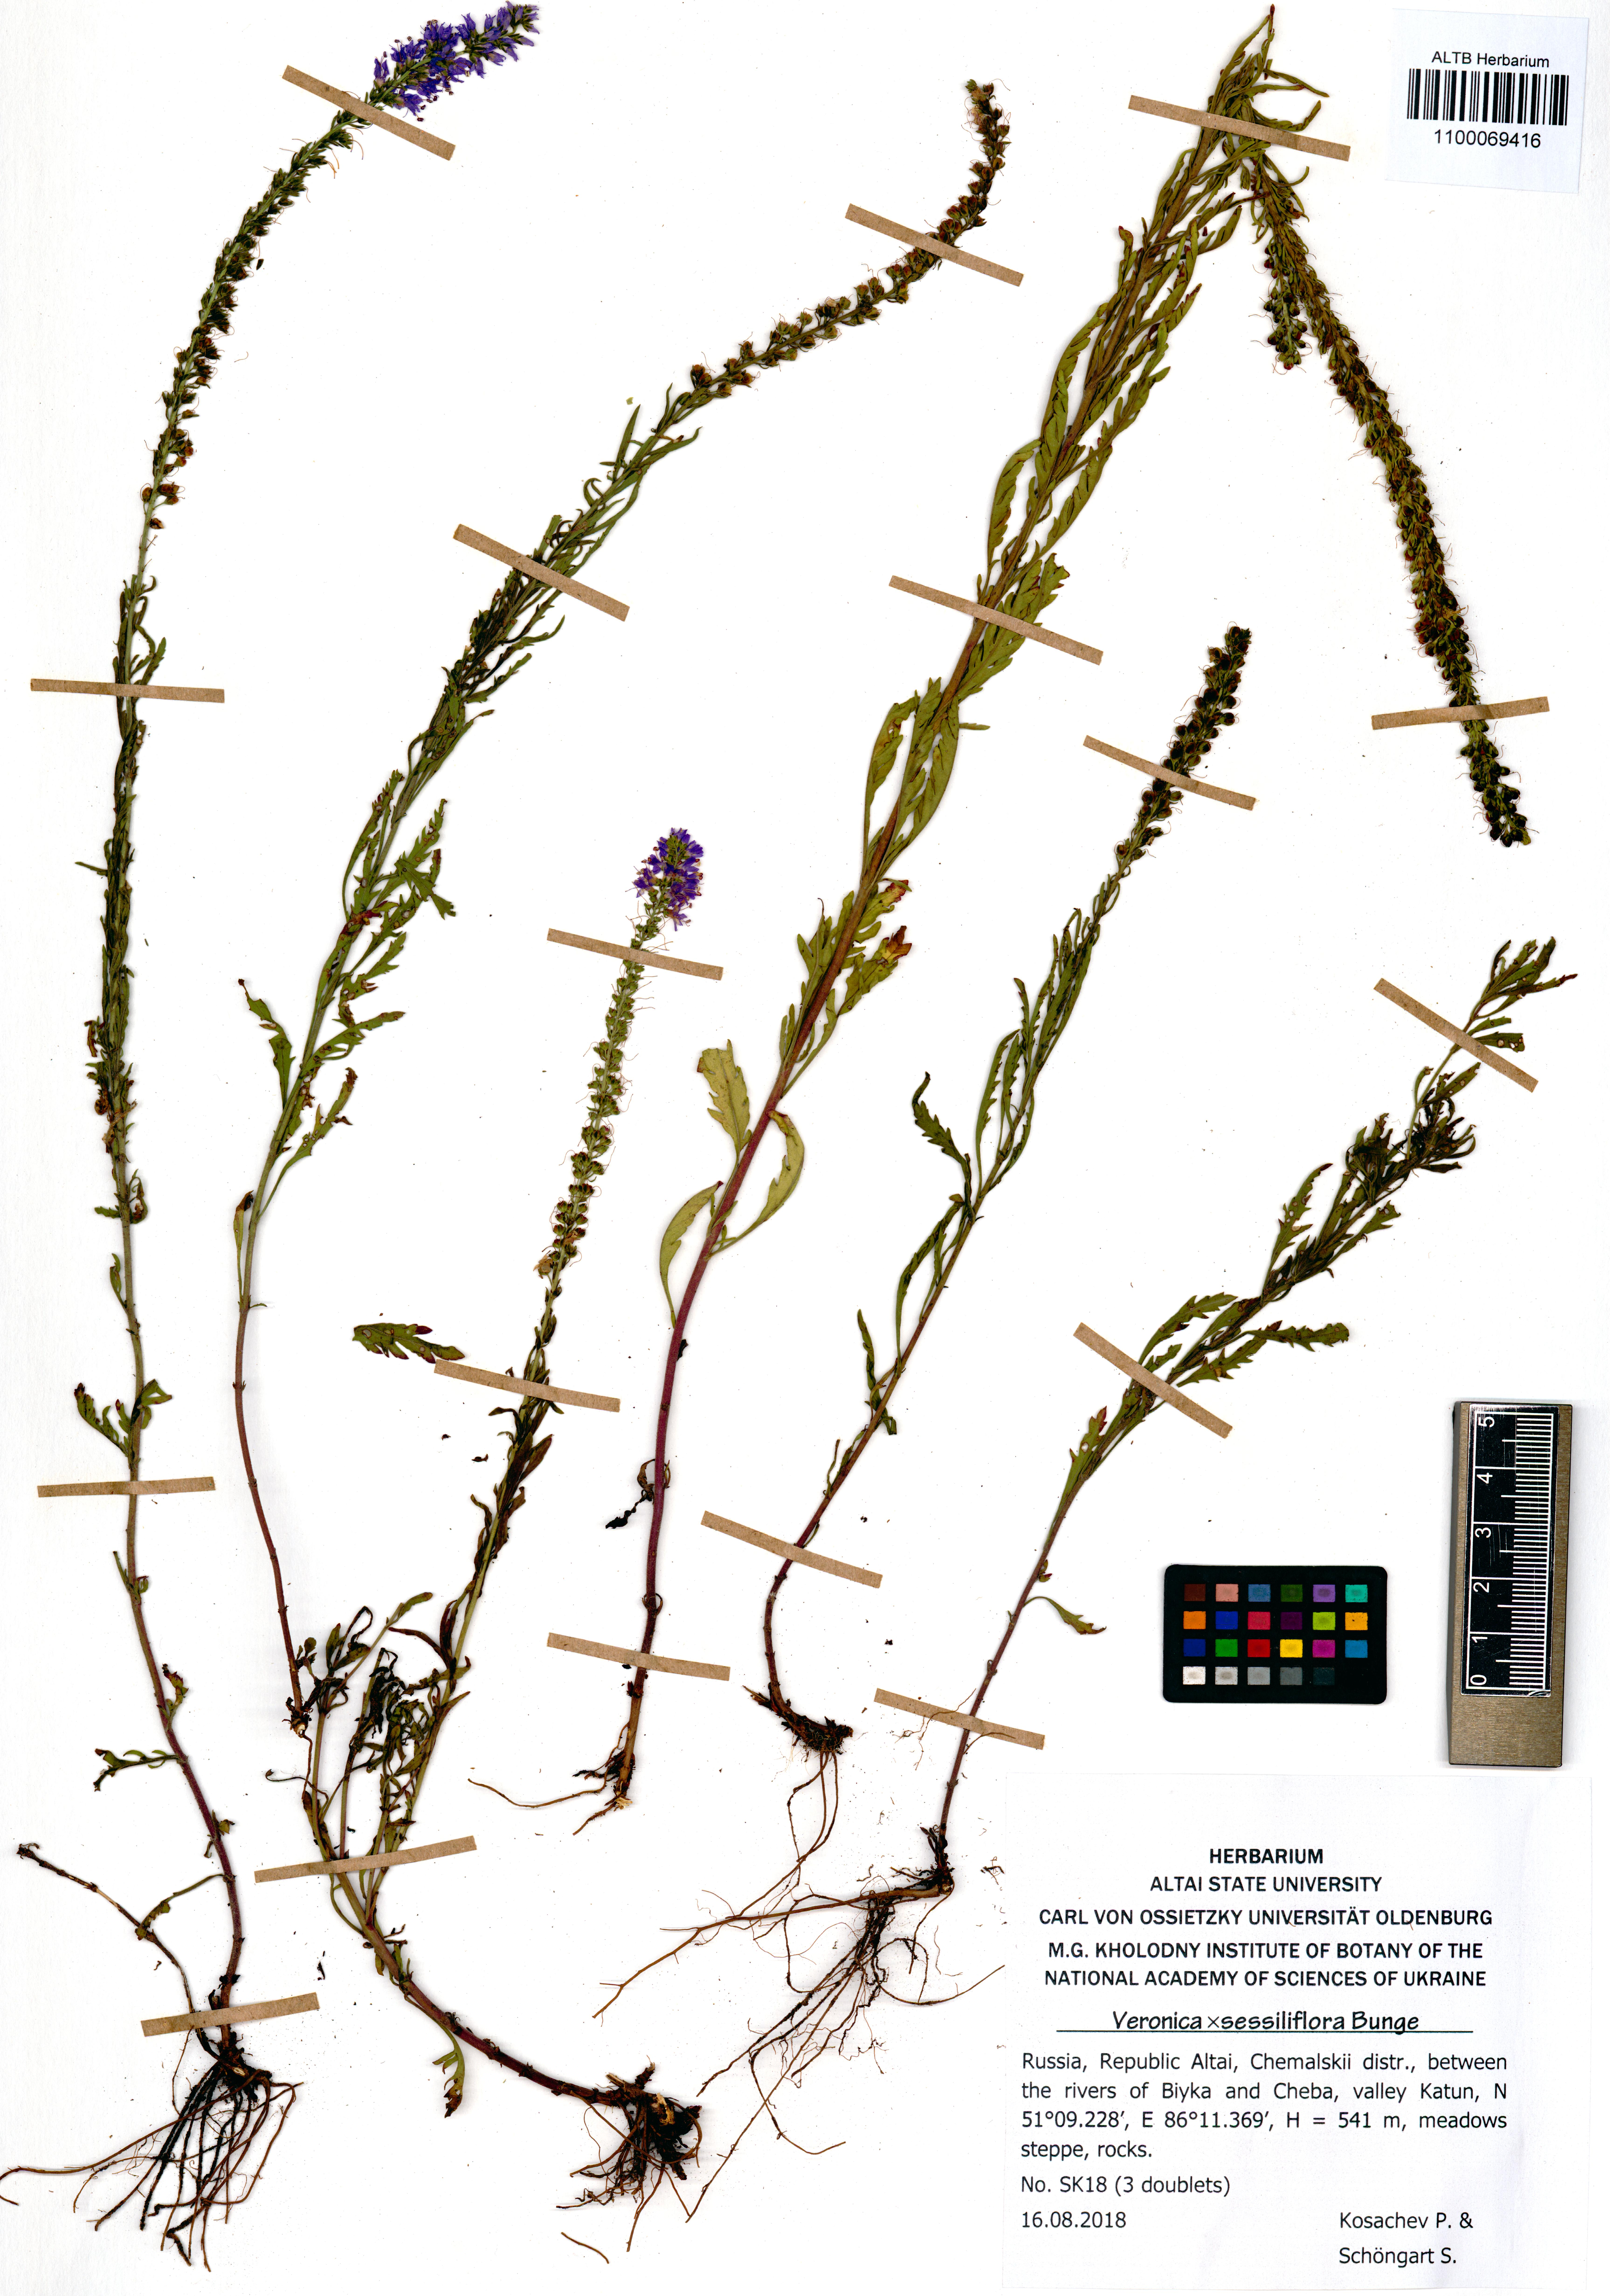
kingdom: Plantae
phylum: Tracheophyta
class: Magnoliopsida
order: Lamiales
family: Plantaginaceae
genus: Veronica
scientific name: Veronica sessiliflora
